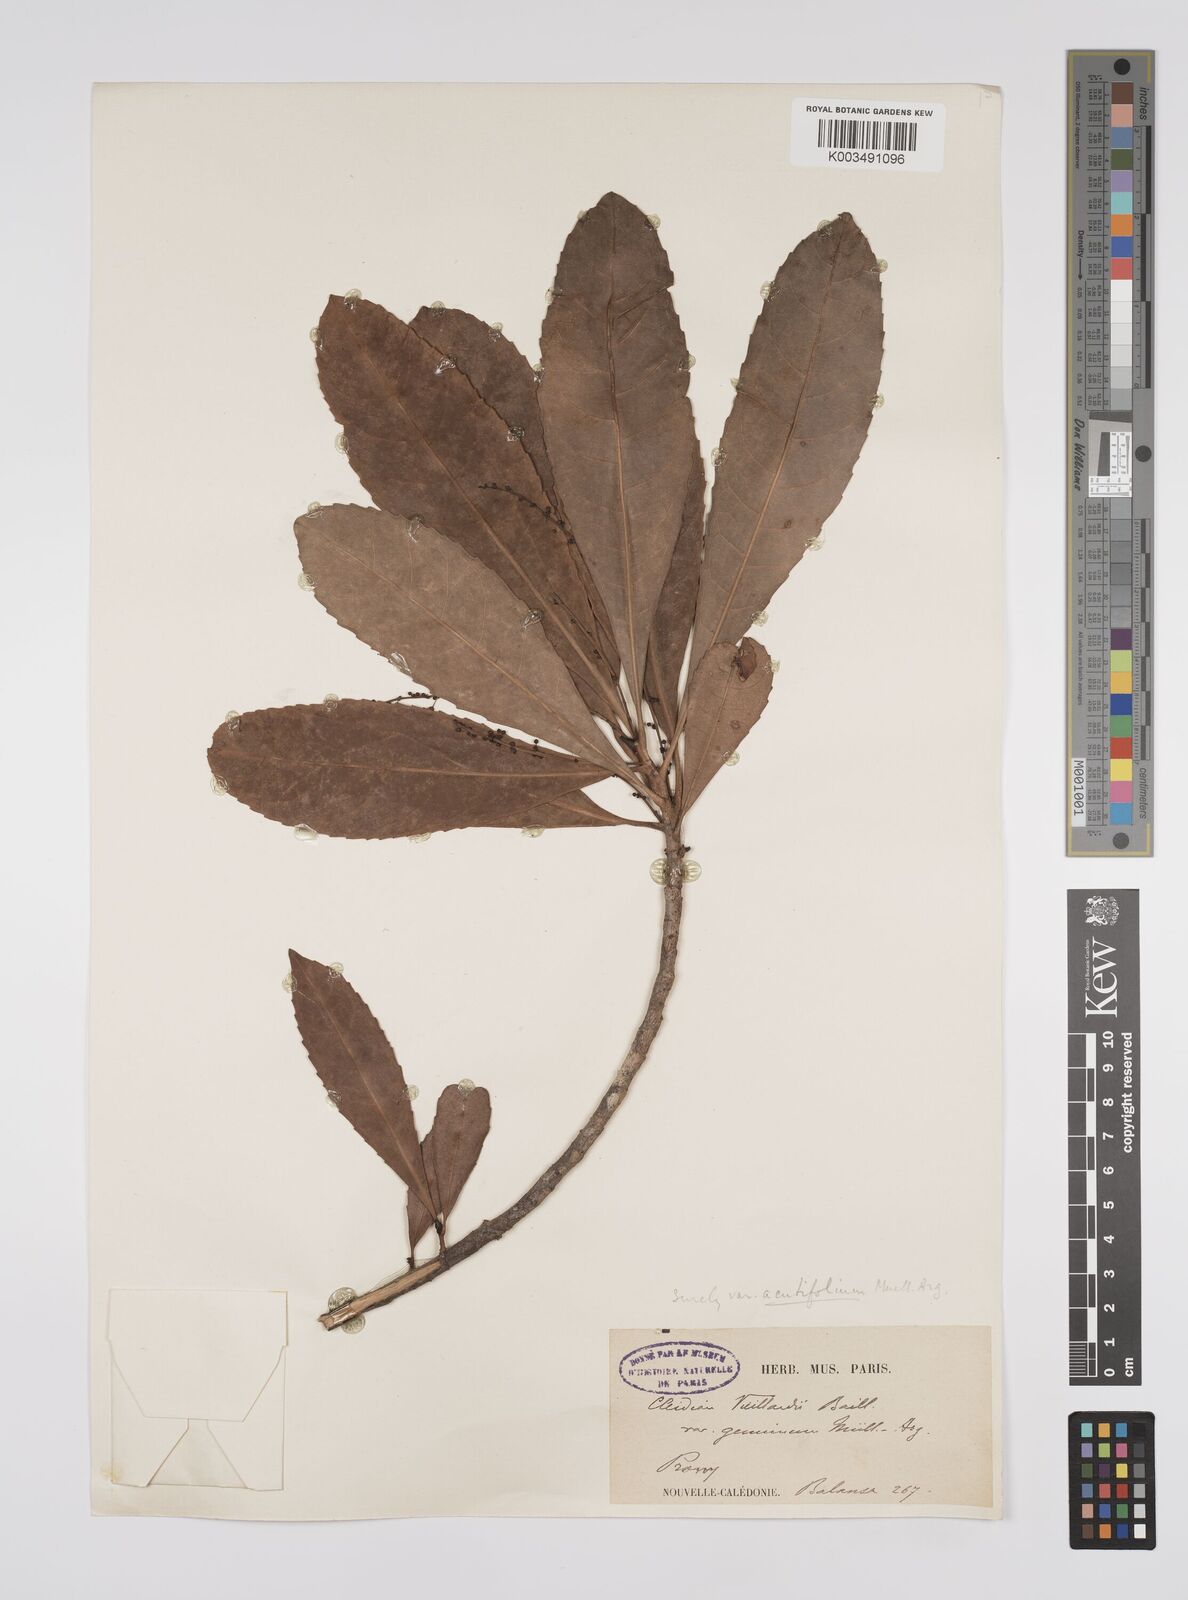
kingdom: Plantae
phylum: Tracheophyta
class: Magnoliopsida
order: Malpighiales
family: Euphorbiaceae
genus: Cleidion
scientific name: Cleidion vieillardii
